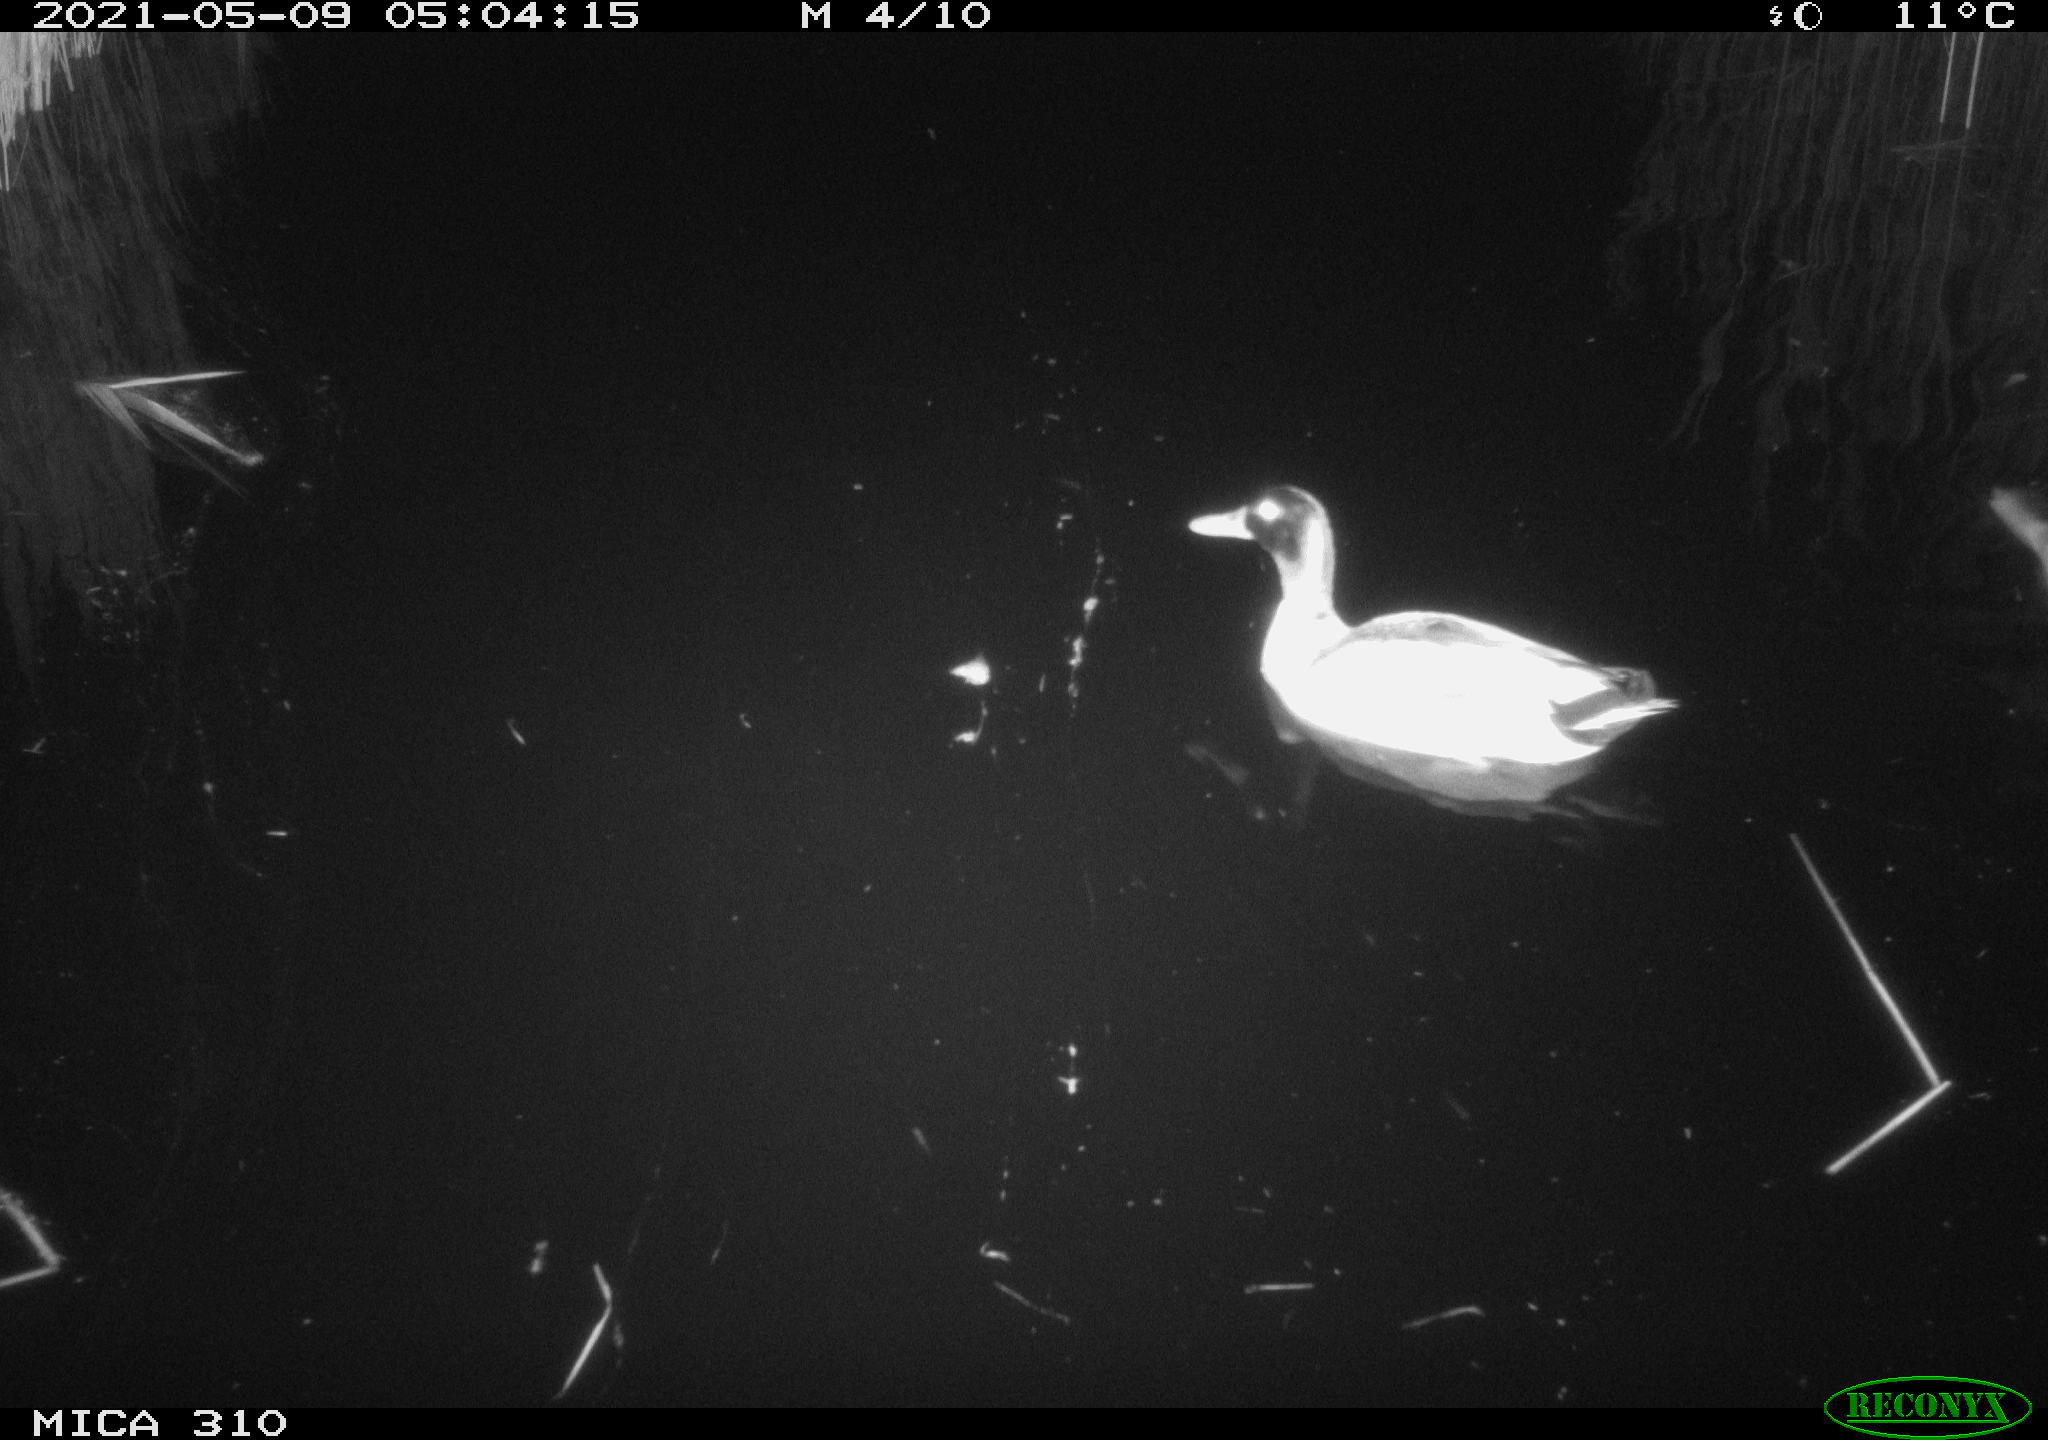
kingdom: Animalia
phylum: Chordata
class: Aves
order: Anseriformes
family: Anatidae
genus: Anas
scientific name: Anas platyrhynchos
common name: Mallard
